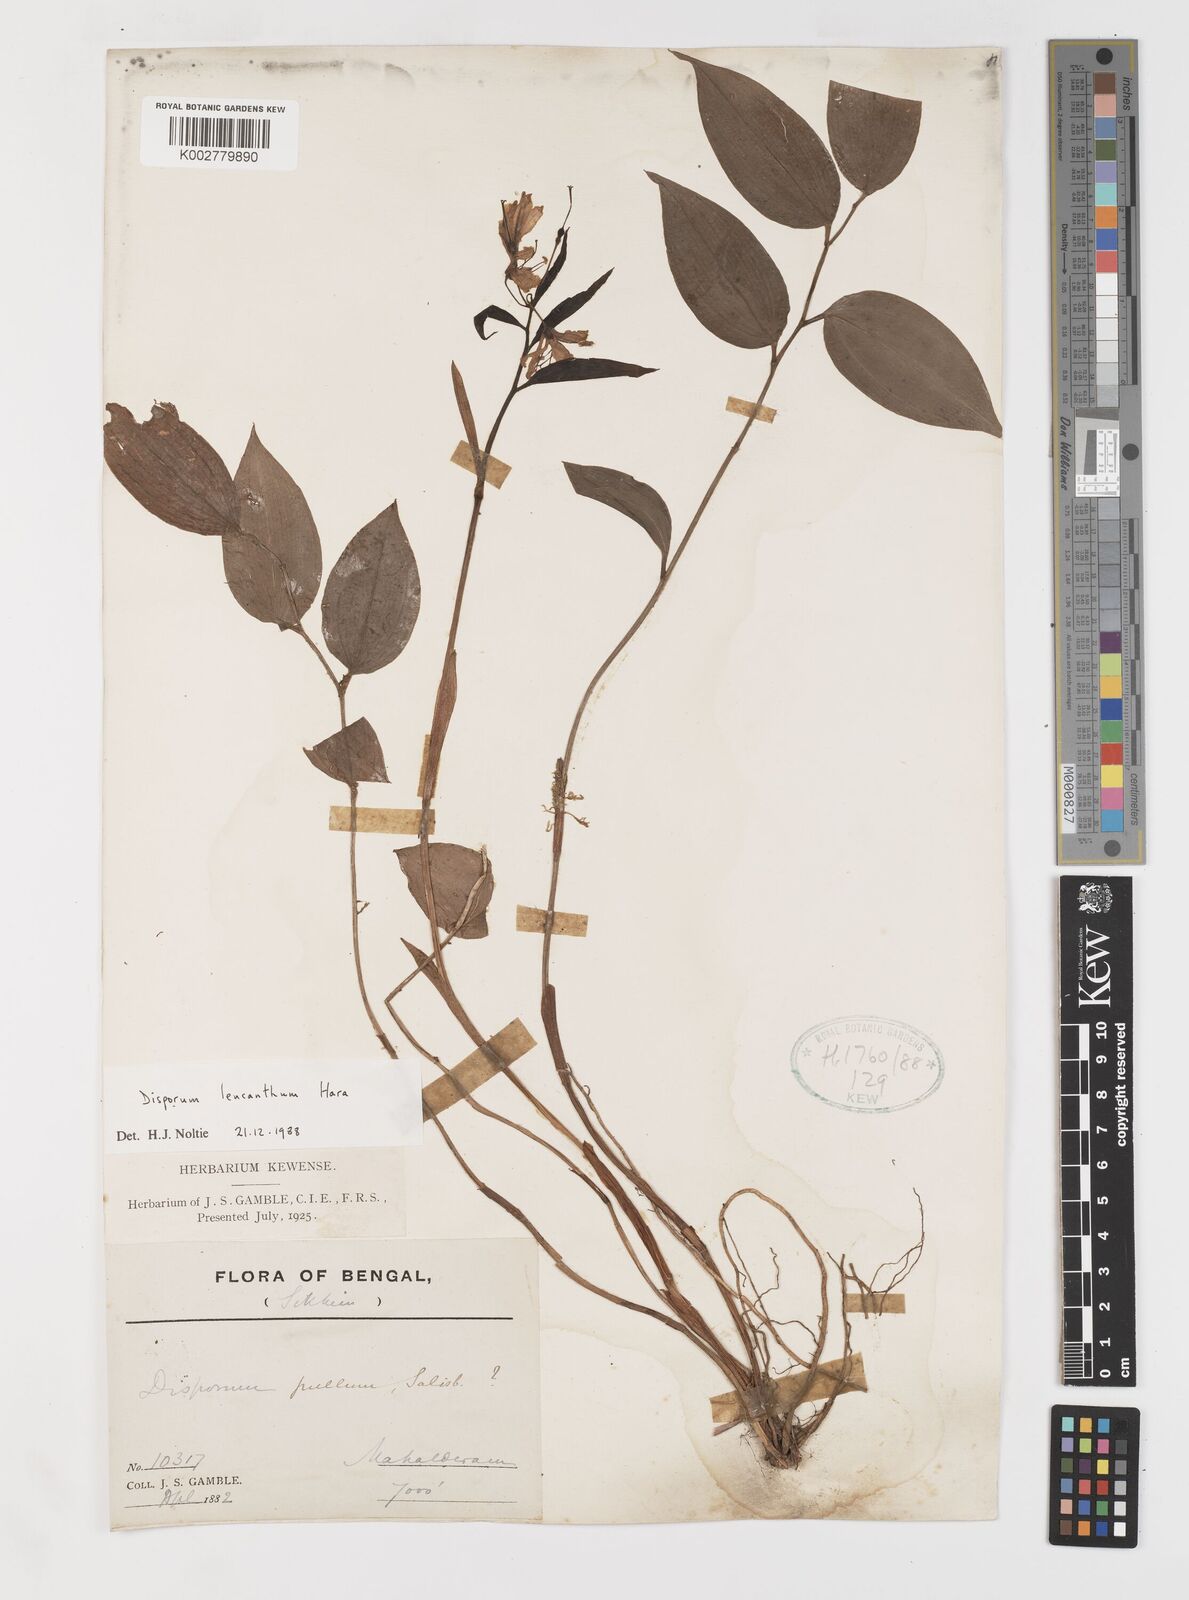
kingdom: Plantae
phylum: Tracheophyta
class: Liliopsida
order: Liliales
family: Colchicaceae
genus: Disporum
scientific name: Disporum leucanthum
